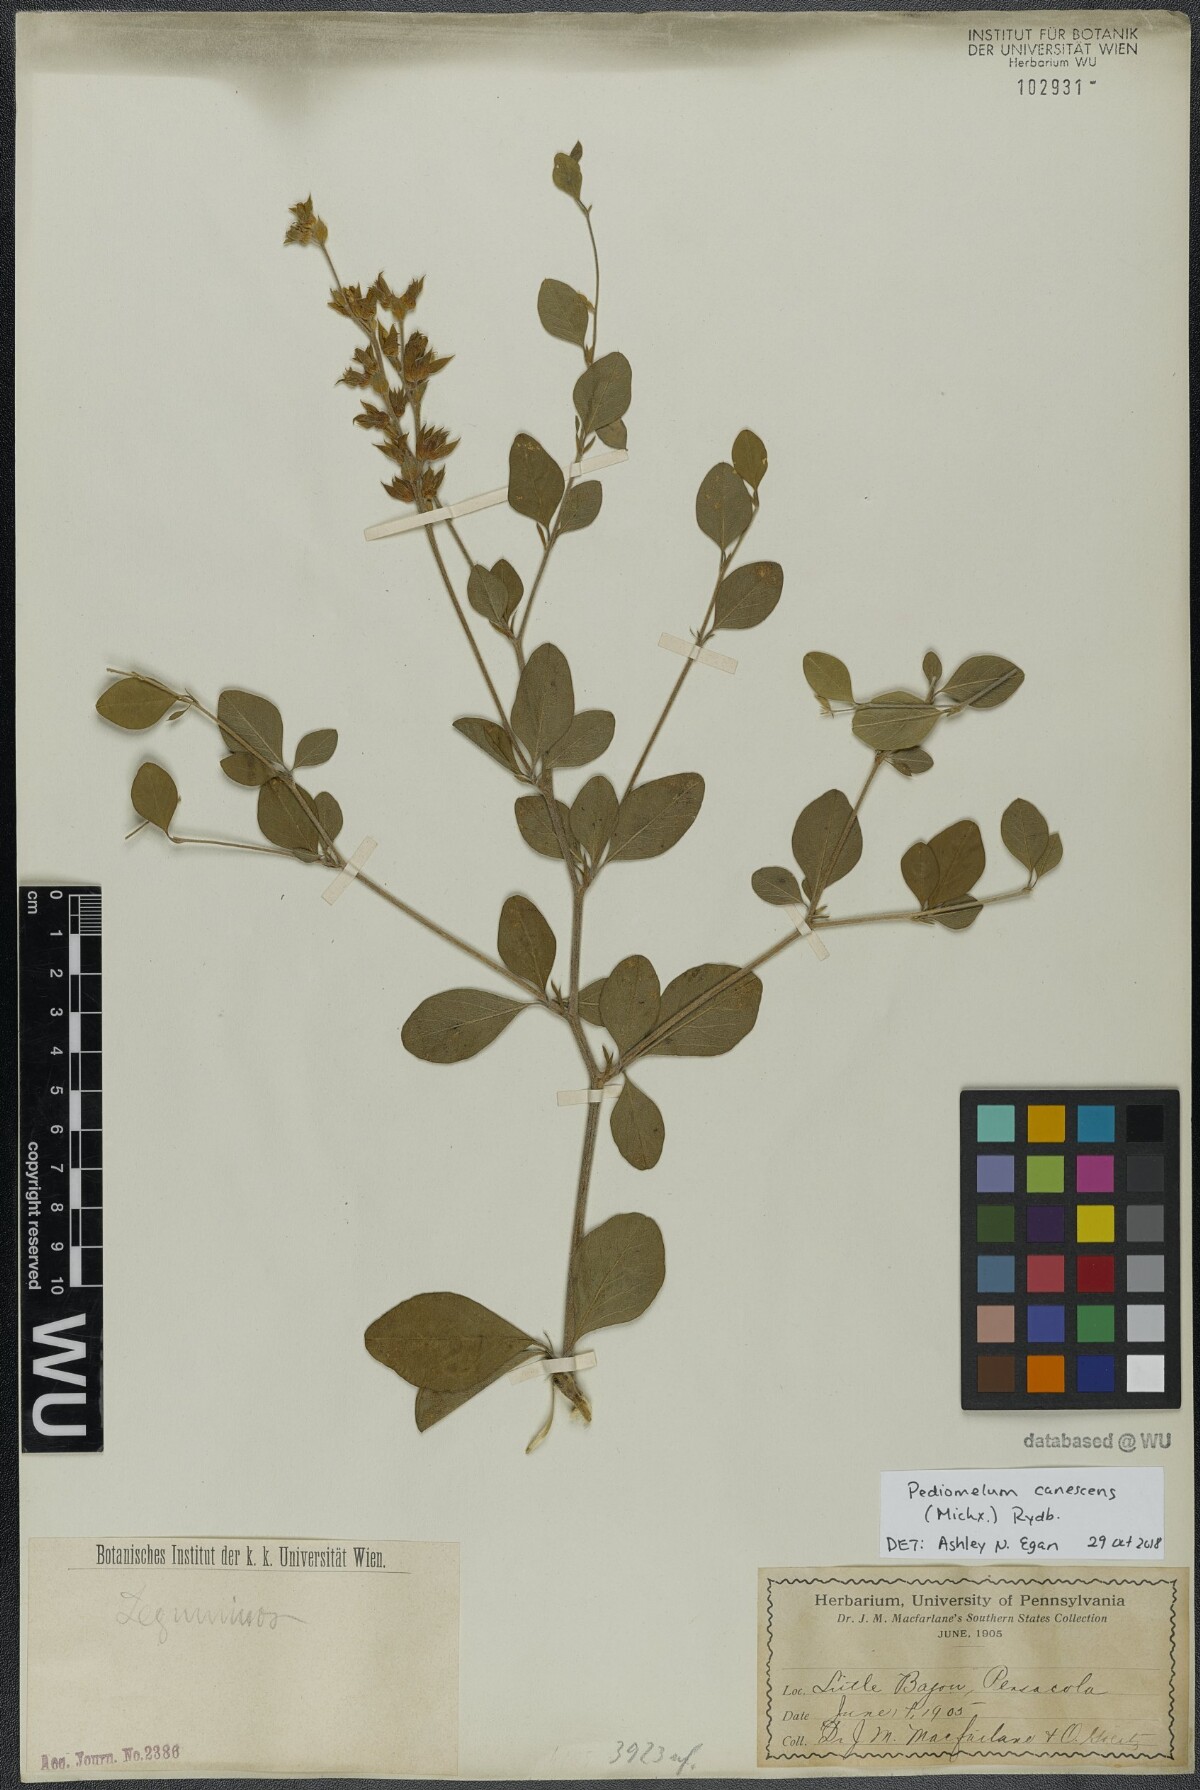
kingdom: Plantae
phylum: Tracheophyta
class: Magnoliopsida
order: Fabales
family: Fabaceae
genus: Pediomelum
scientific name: Pediomelum canescens
